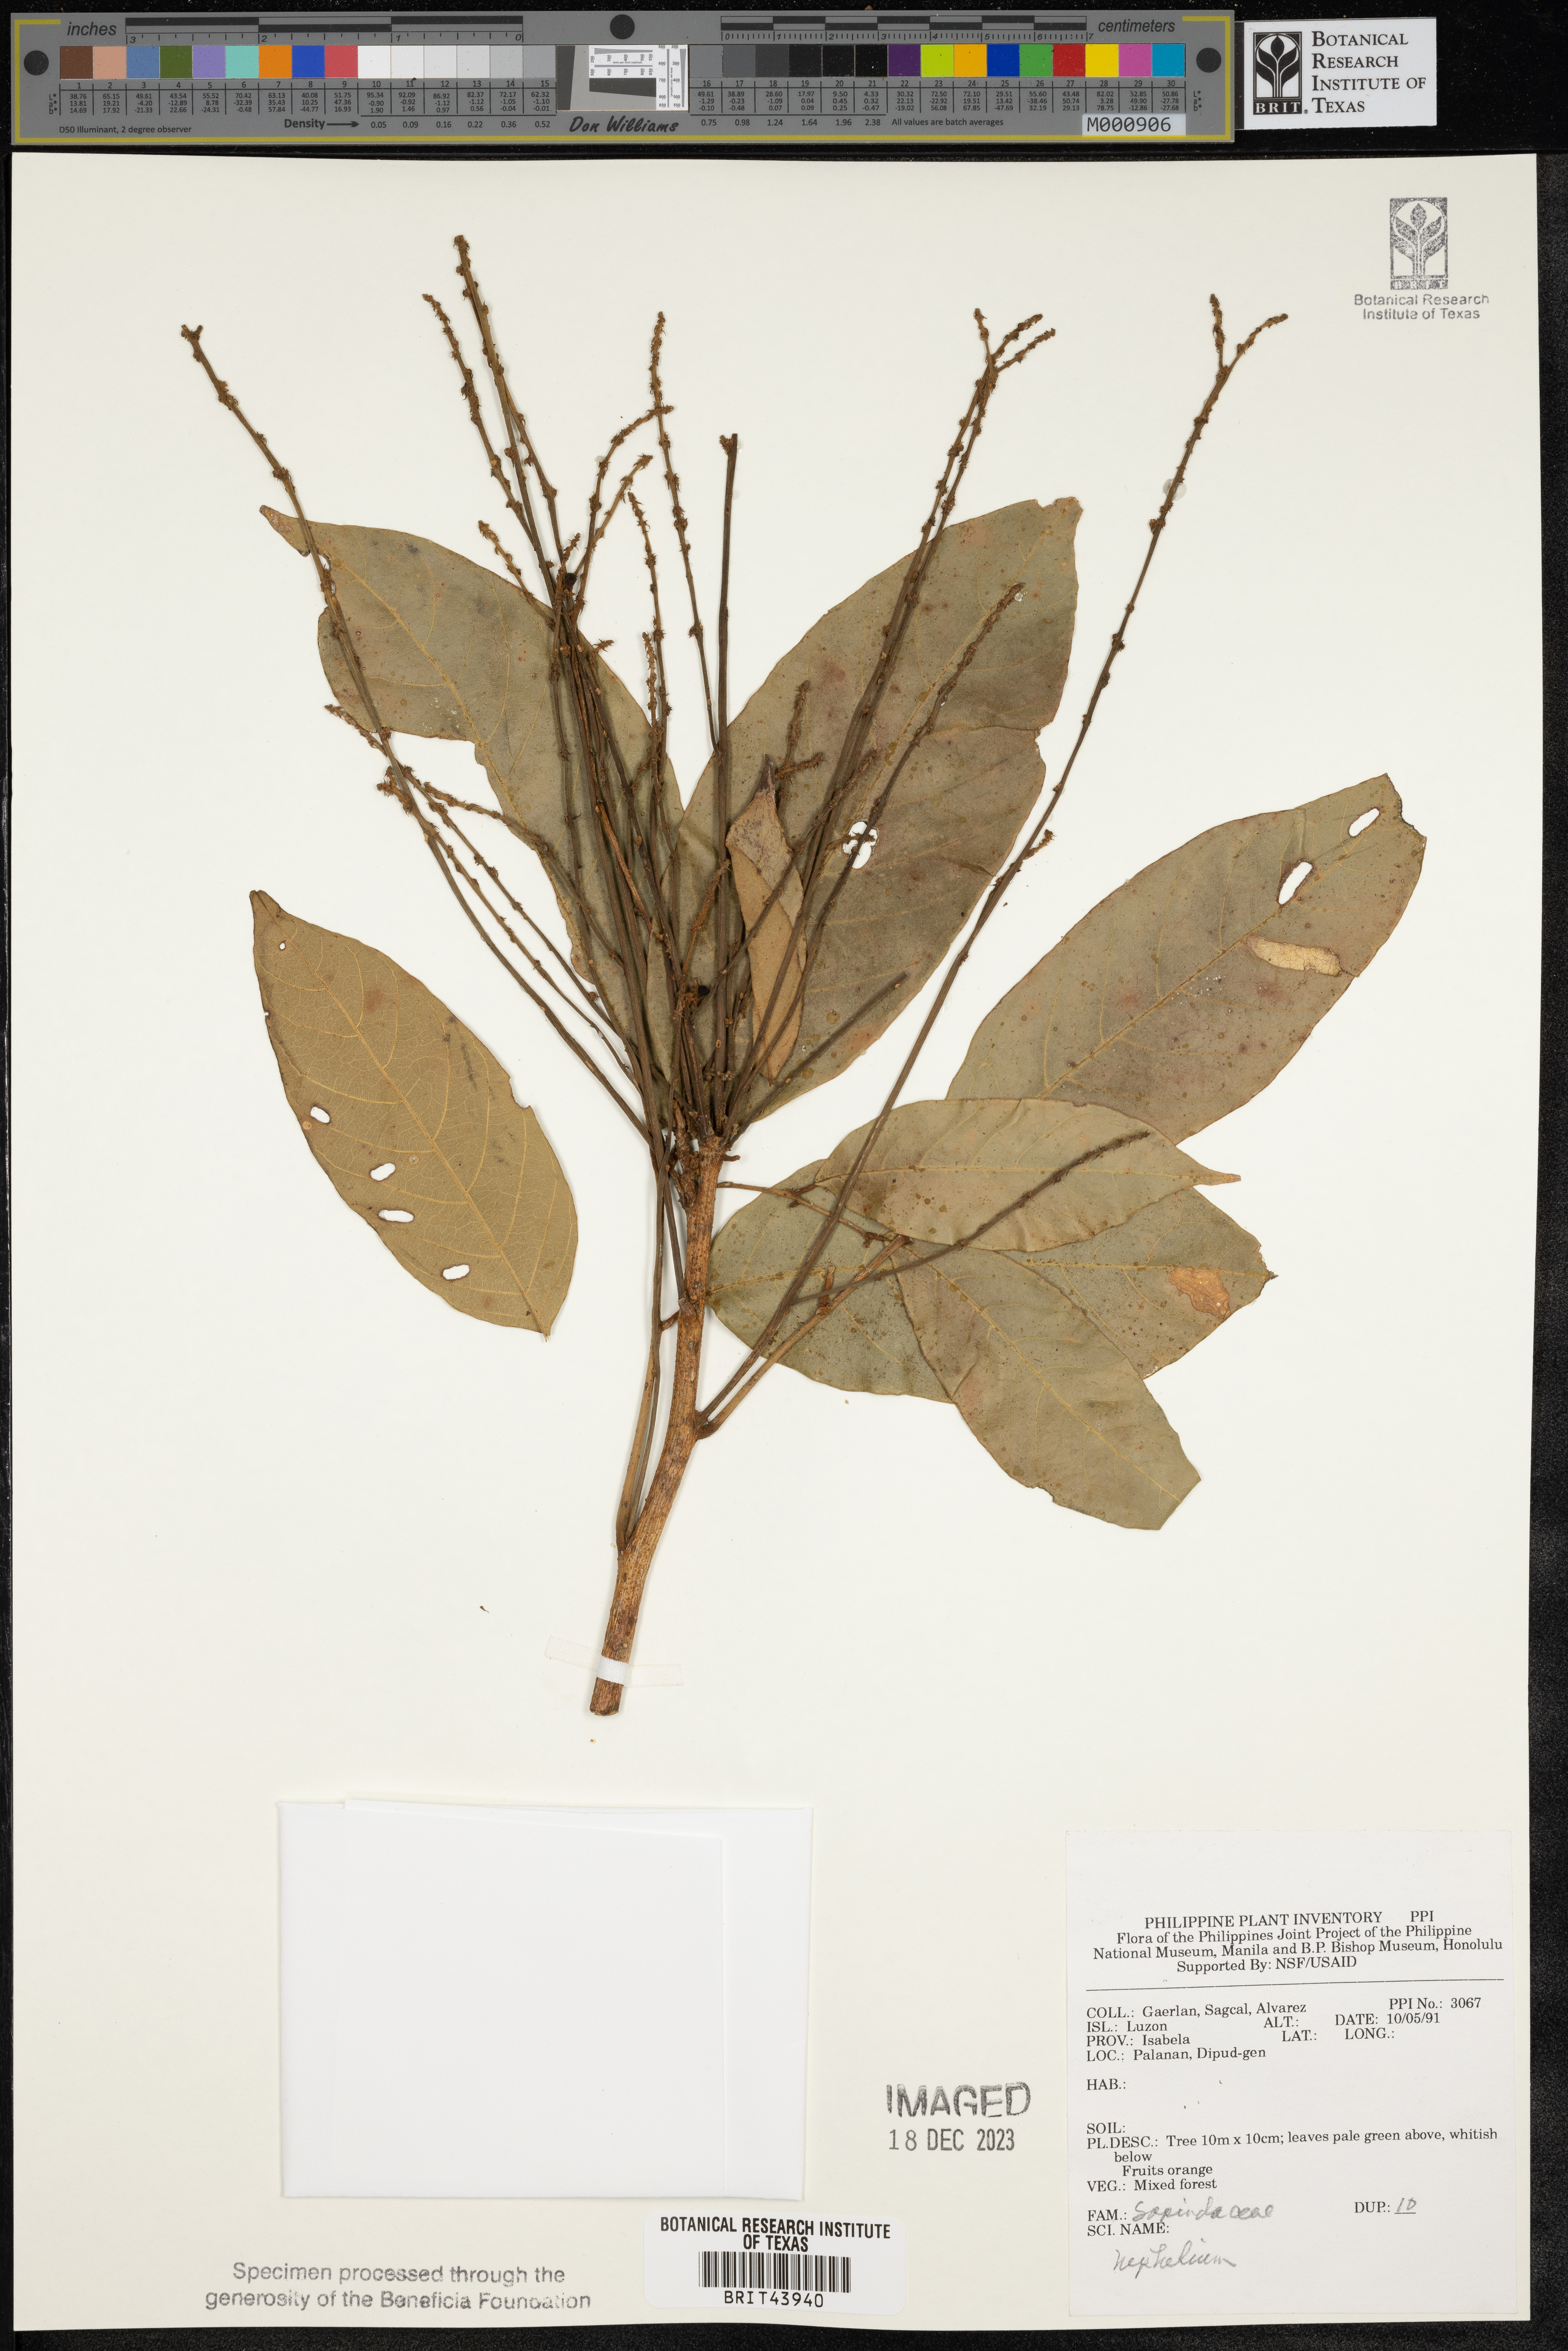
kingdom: Plantae
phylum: Tracheophyta
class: Magnoliopsida
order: Sapindales
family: Sapindaceae
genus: Nephelium
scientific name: Nephelium
